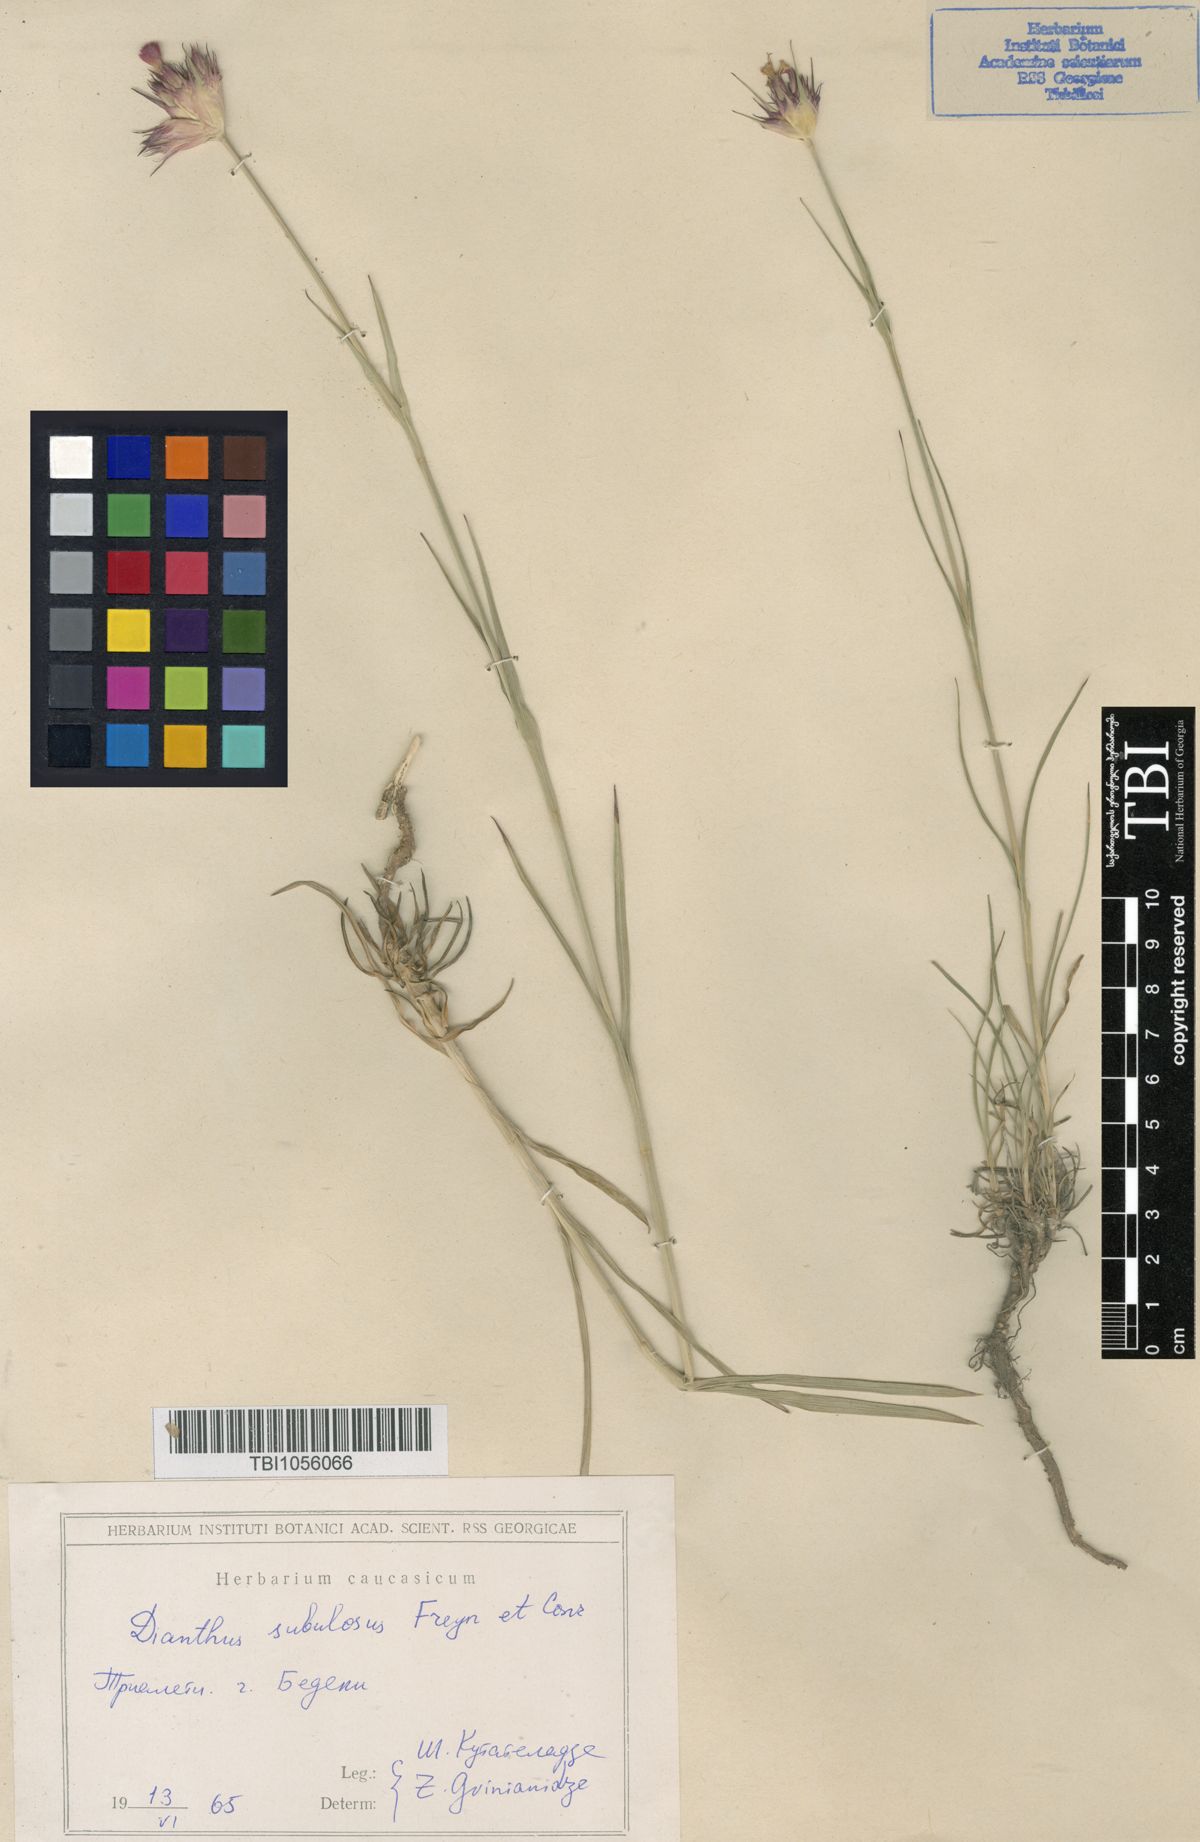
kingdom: Plantae
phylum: Tracheophyta
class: Magnoliopsida
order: Caryophyllales
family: Caryophyllaceae
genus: Dianthus
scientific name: Dianthus subulosus
